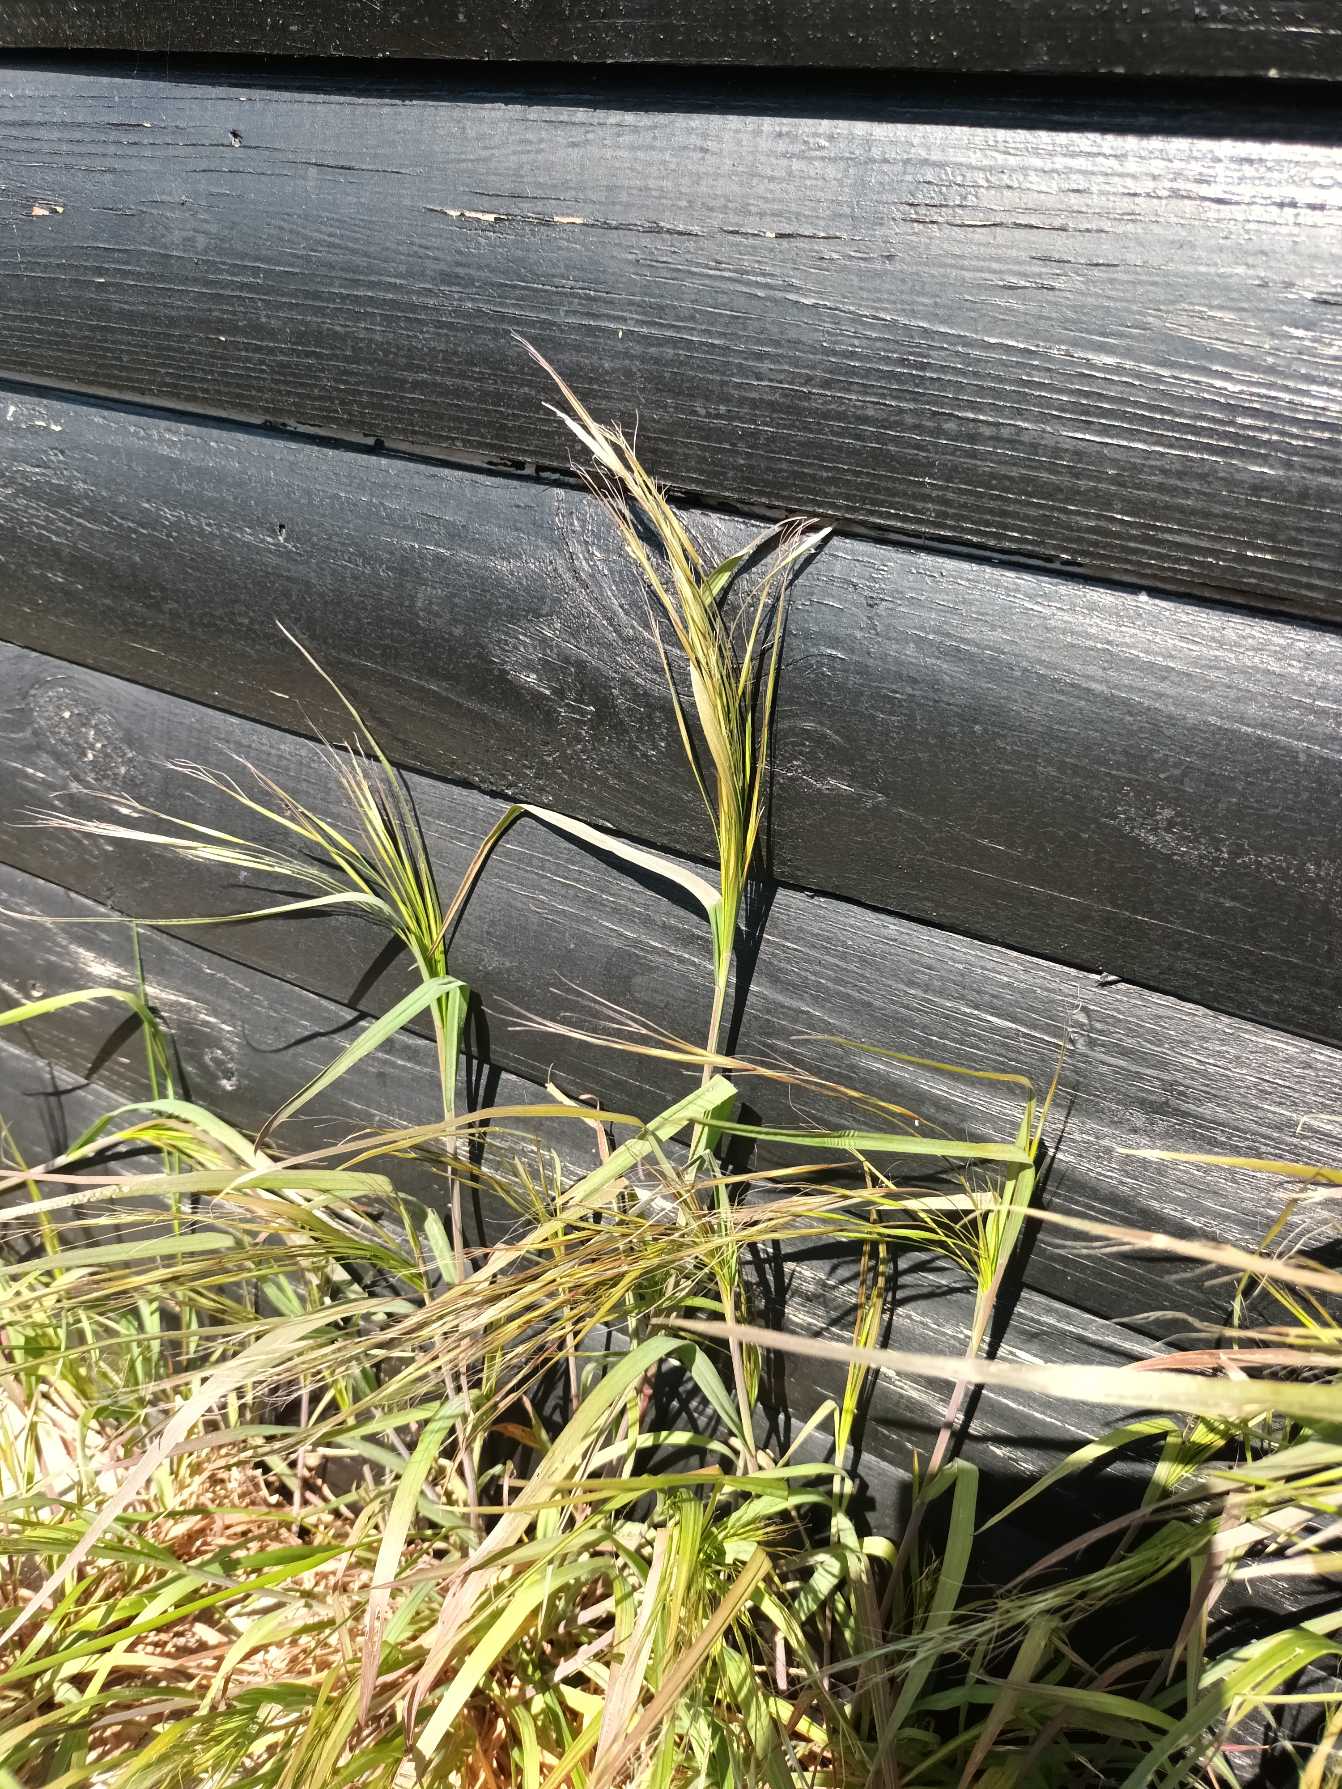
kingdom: Plantae
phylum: Tracheophyta
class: Liliopsida
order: Poales
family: Poaceae
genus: Bromus
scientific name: Bromus sterilis
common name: Gold hejre
